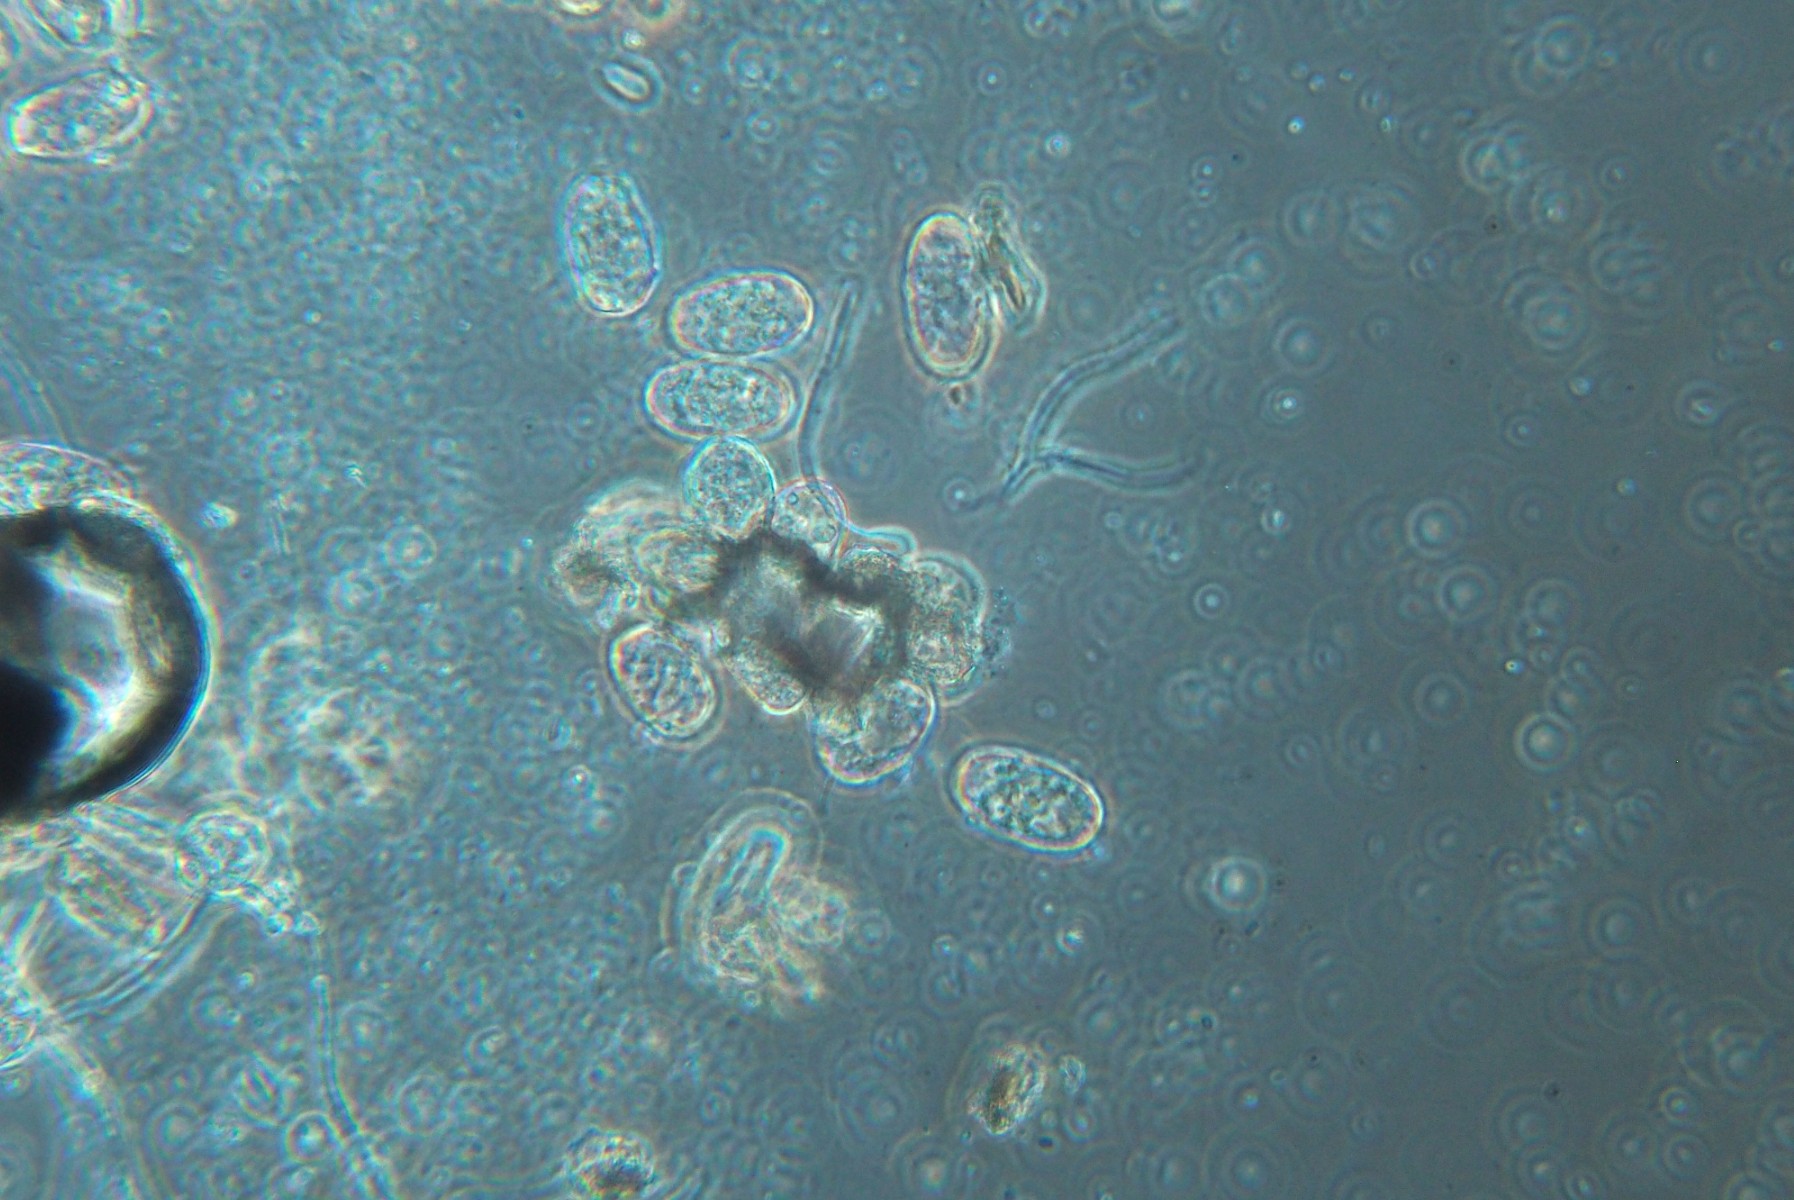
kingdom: Fungi
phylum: Ascomycota
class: Leotiomycetes
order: Helotiales
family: Erysiphaceae
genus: Erysiphe
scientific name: Erysiphe
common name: meldug
